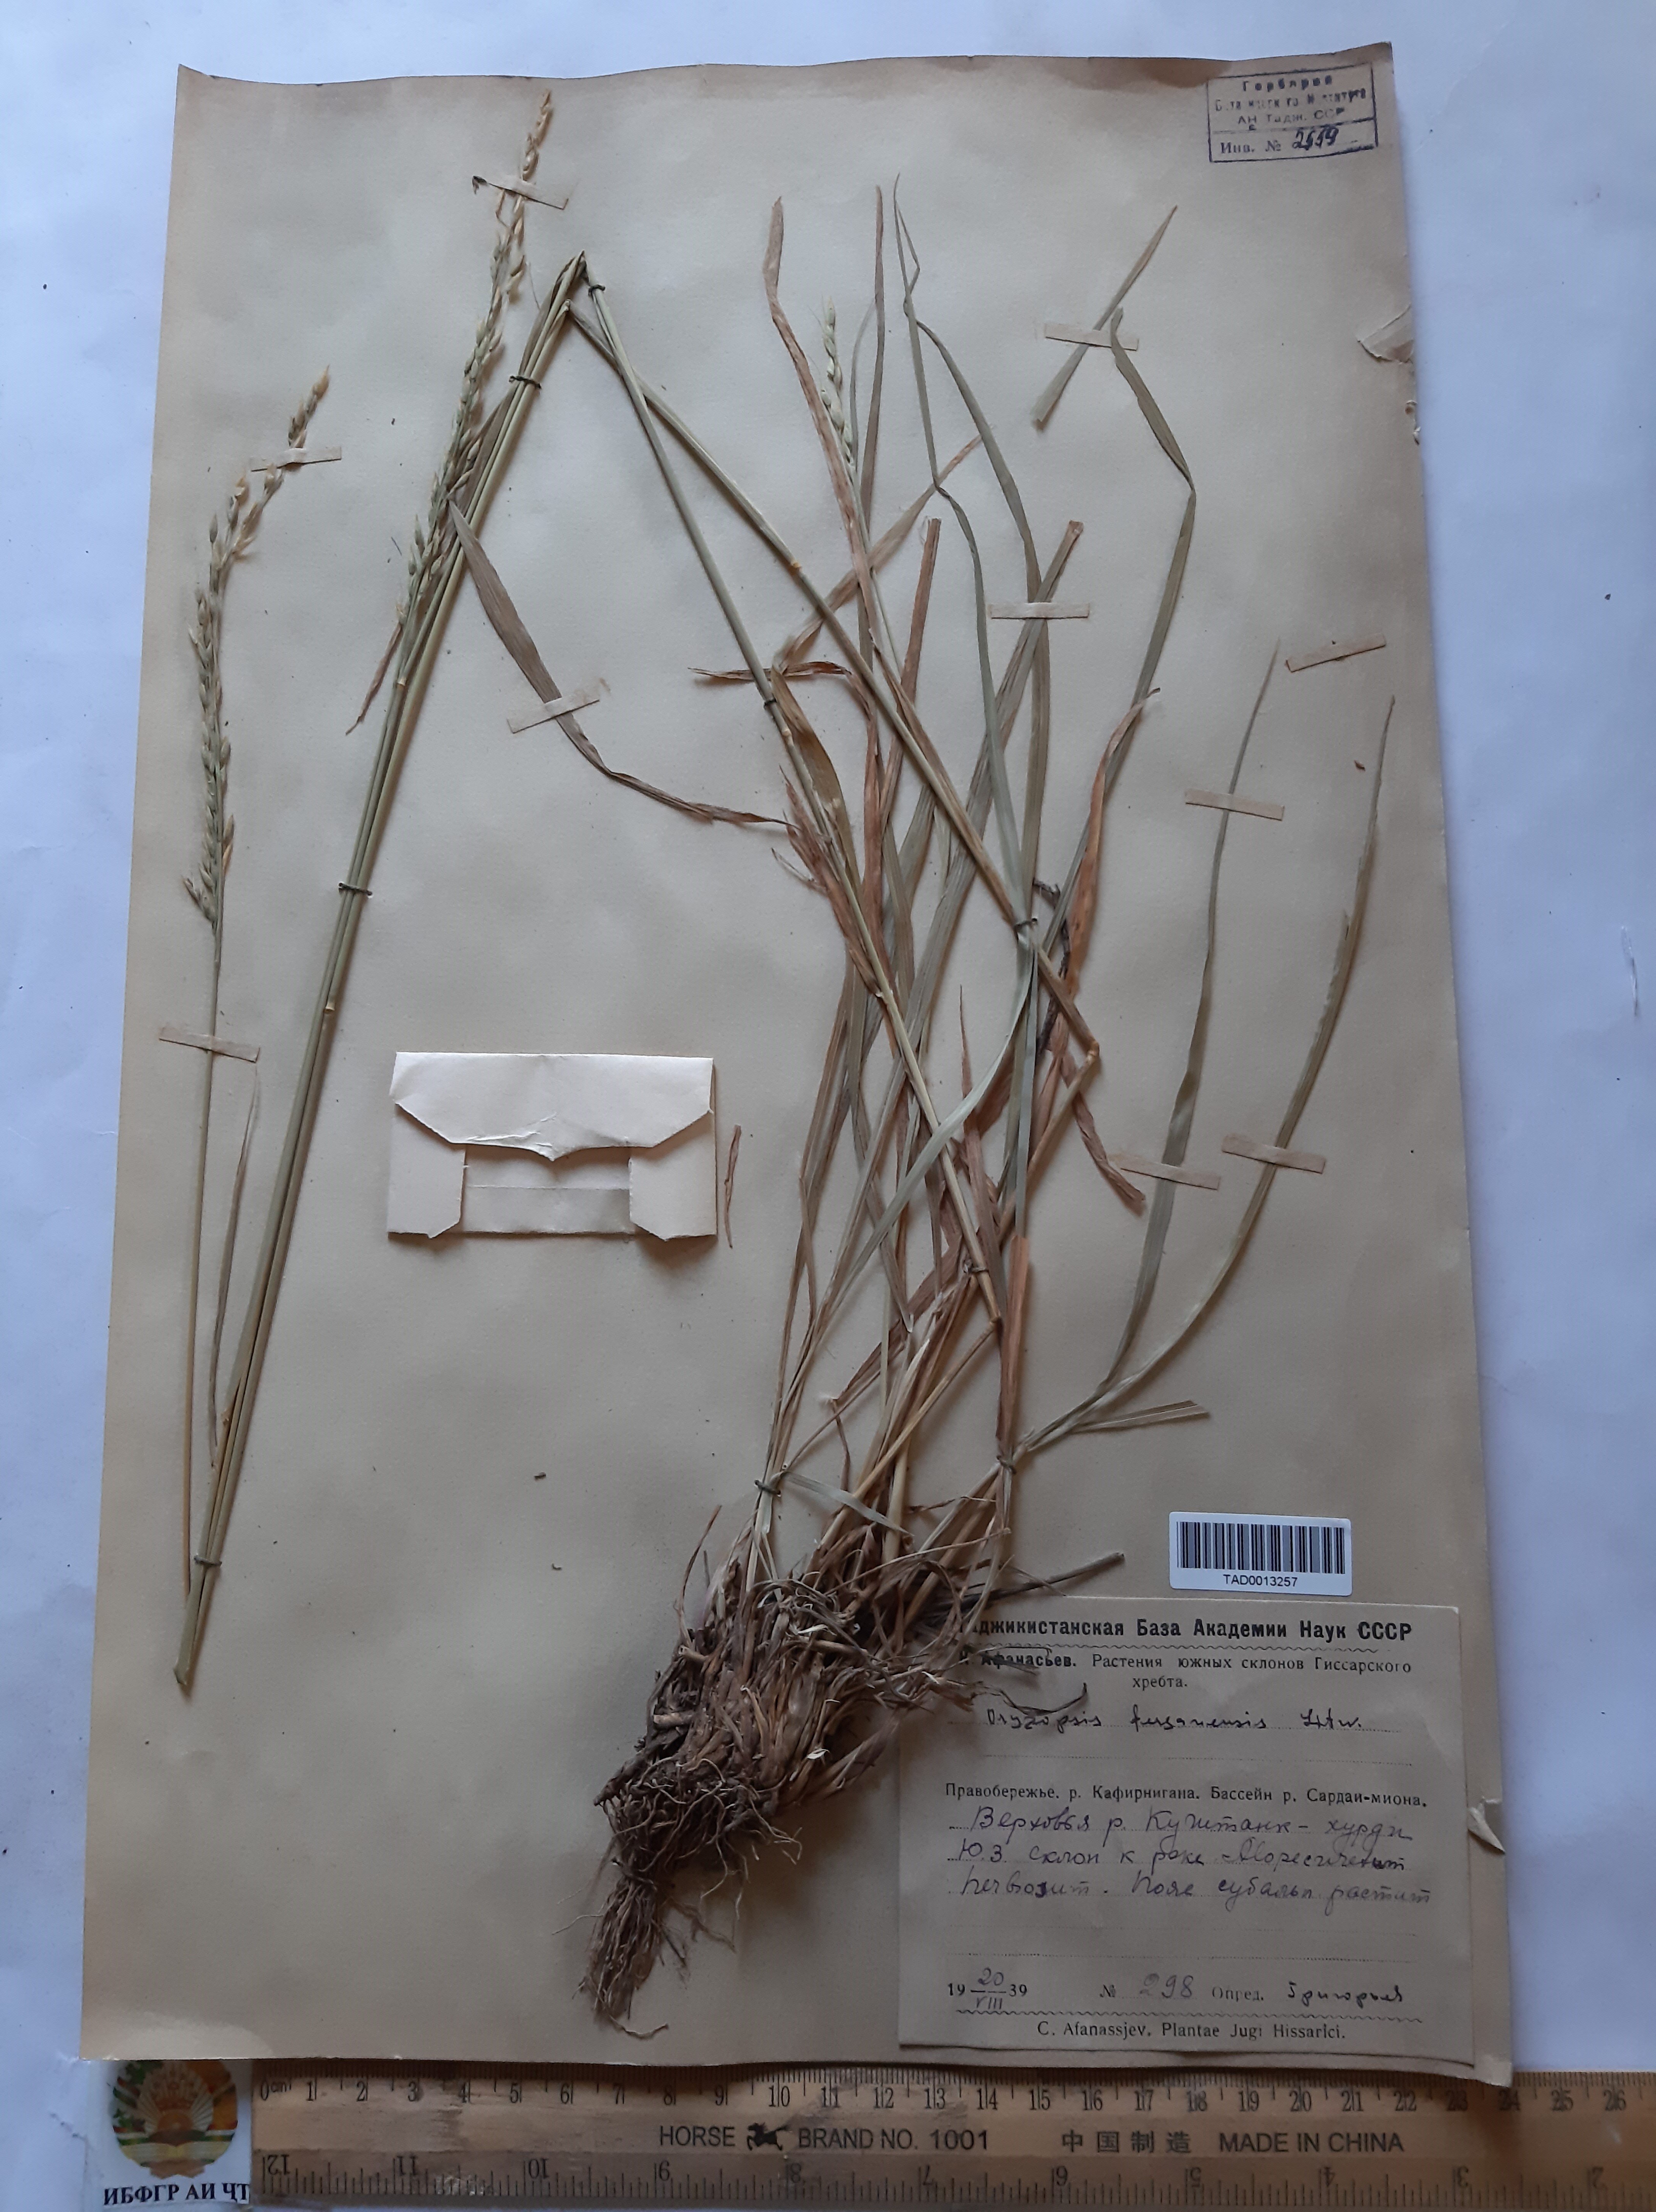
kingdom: Plantae
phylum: Tracheophyta
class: Liliopsida
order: Poales
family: Poaceae
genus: Piptatherum
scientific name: Piptatherum ferganense
